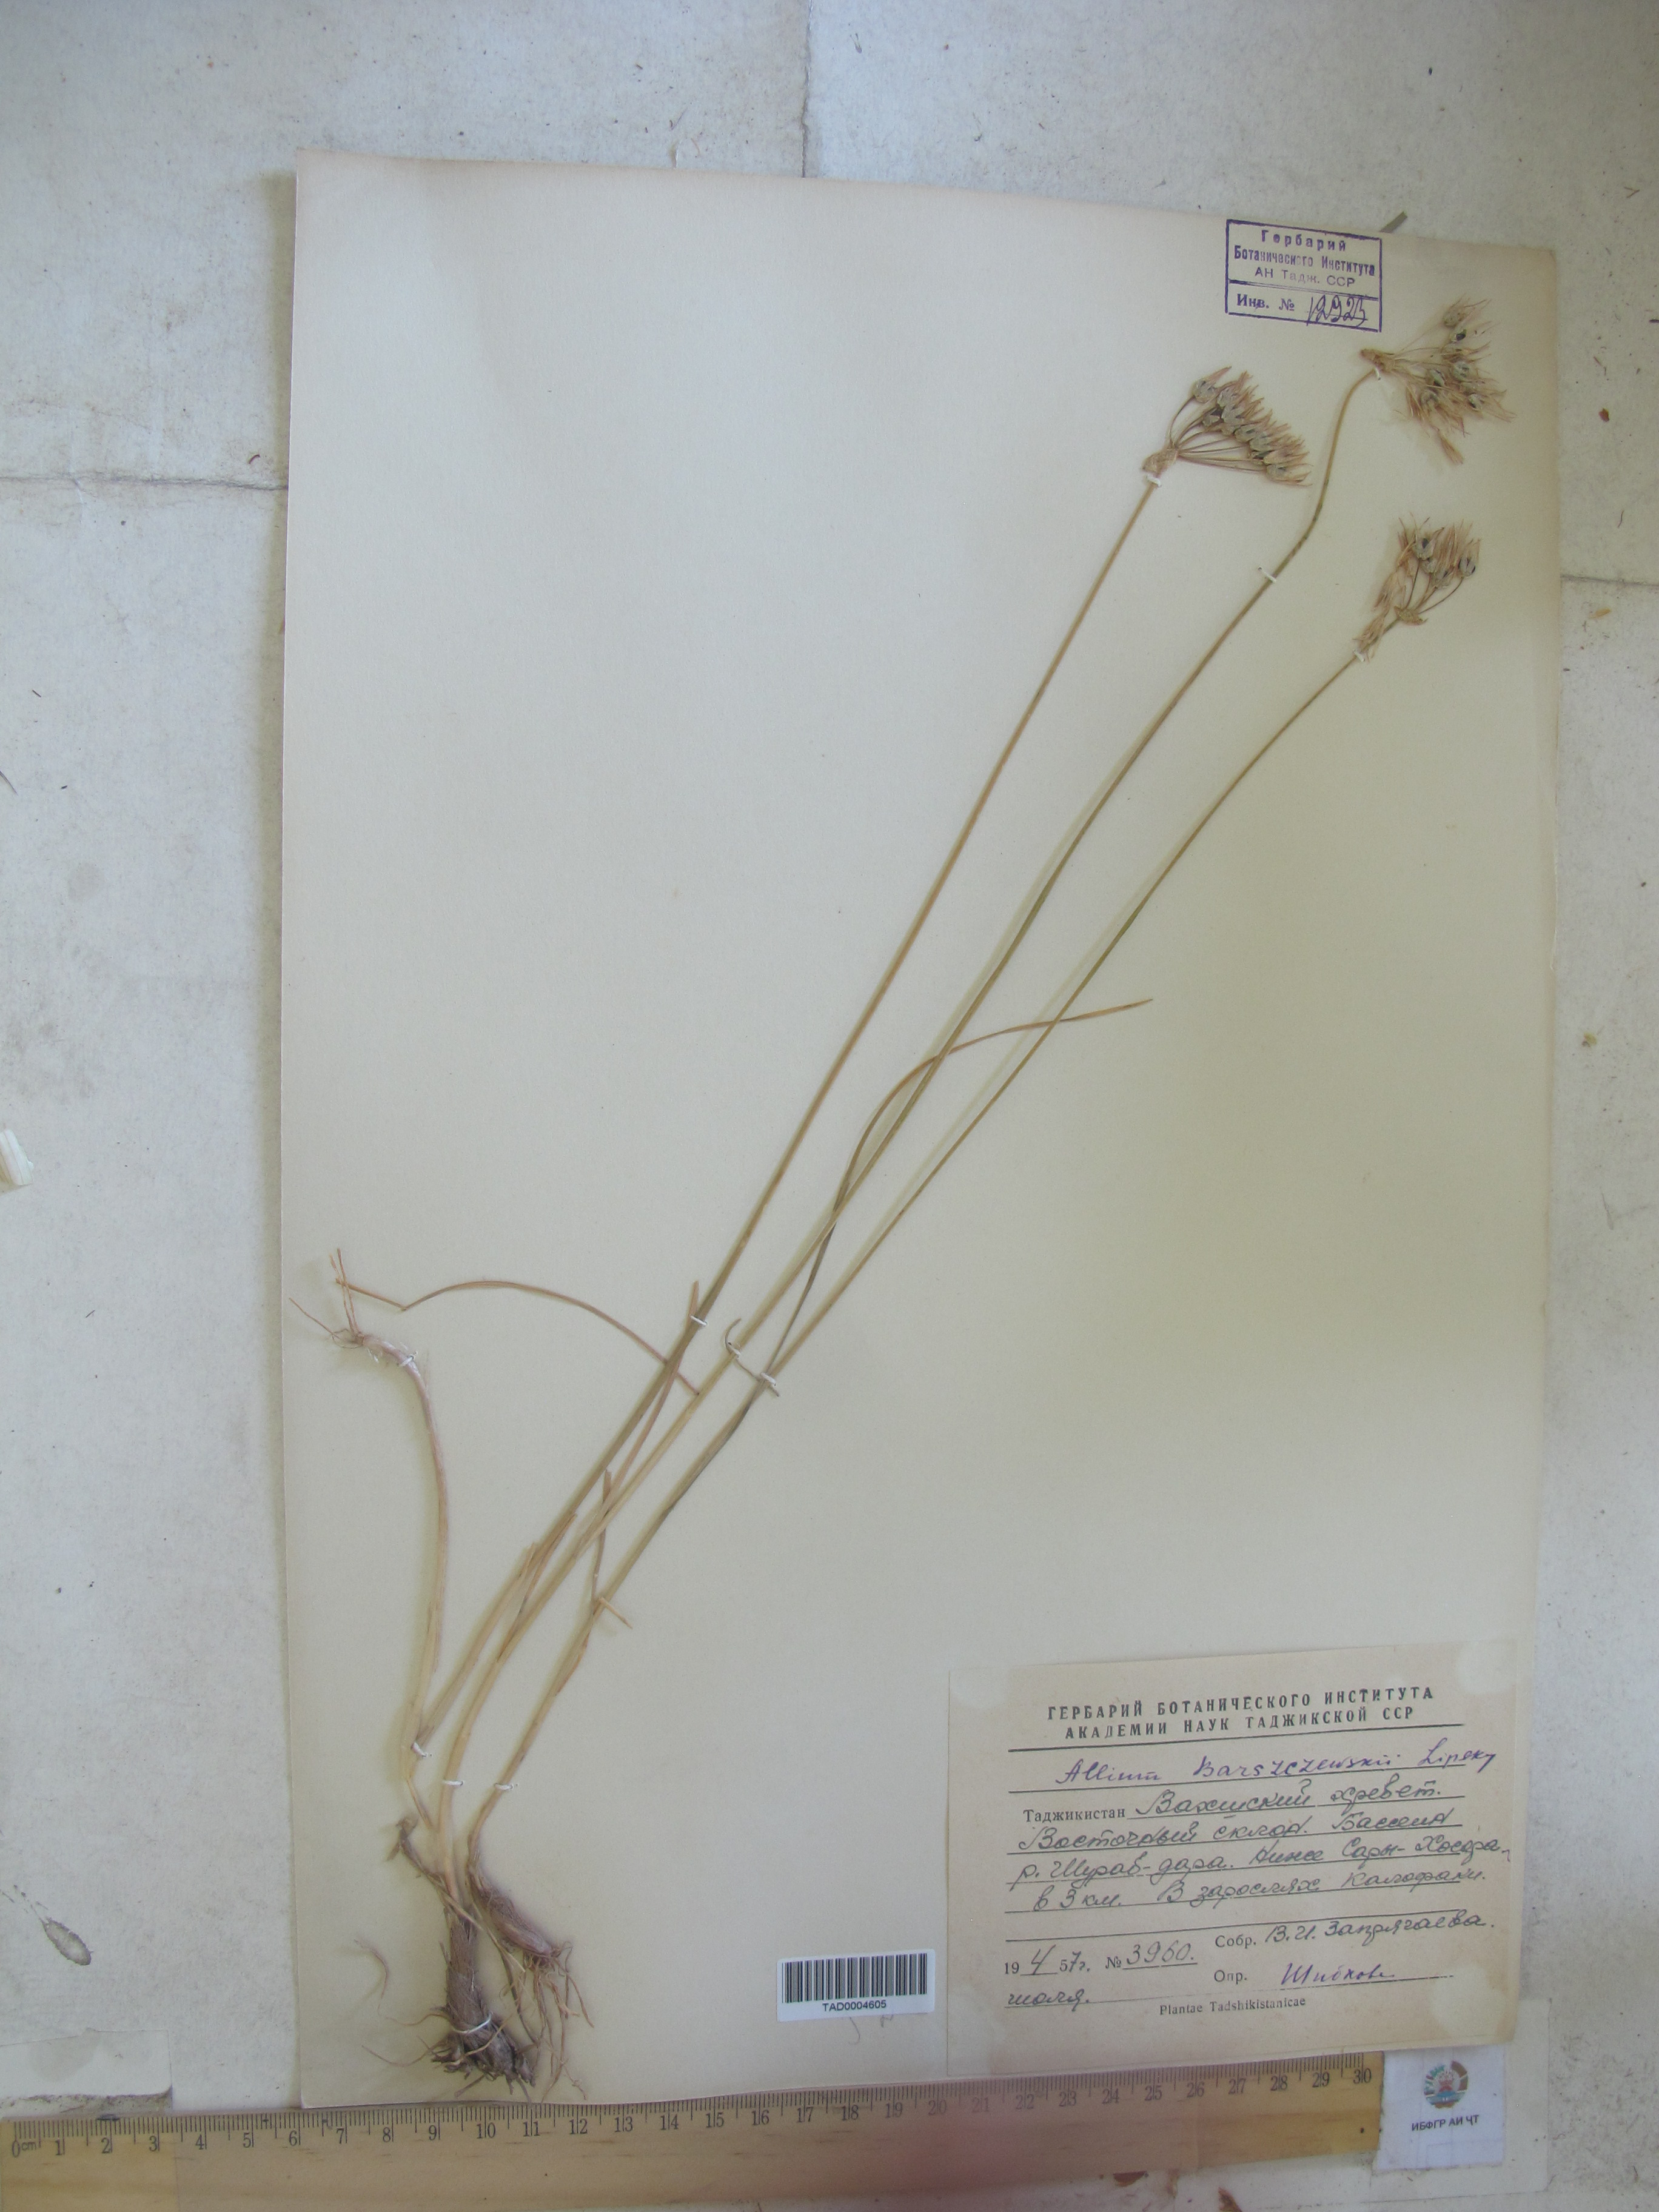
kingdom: Plantae
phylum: Tracheophyta
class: Liliopsida
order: Asparagales
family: Amaryllidaceae
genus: Allium
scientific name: Allium barsczewskii
